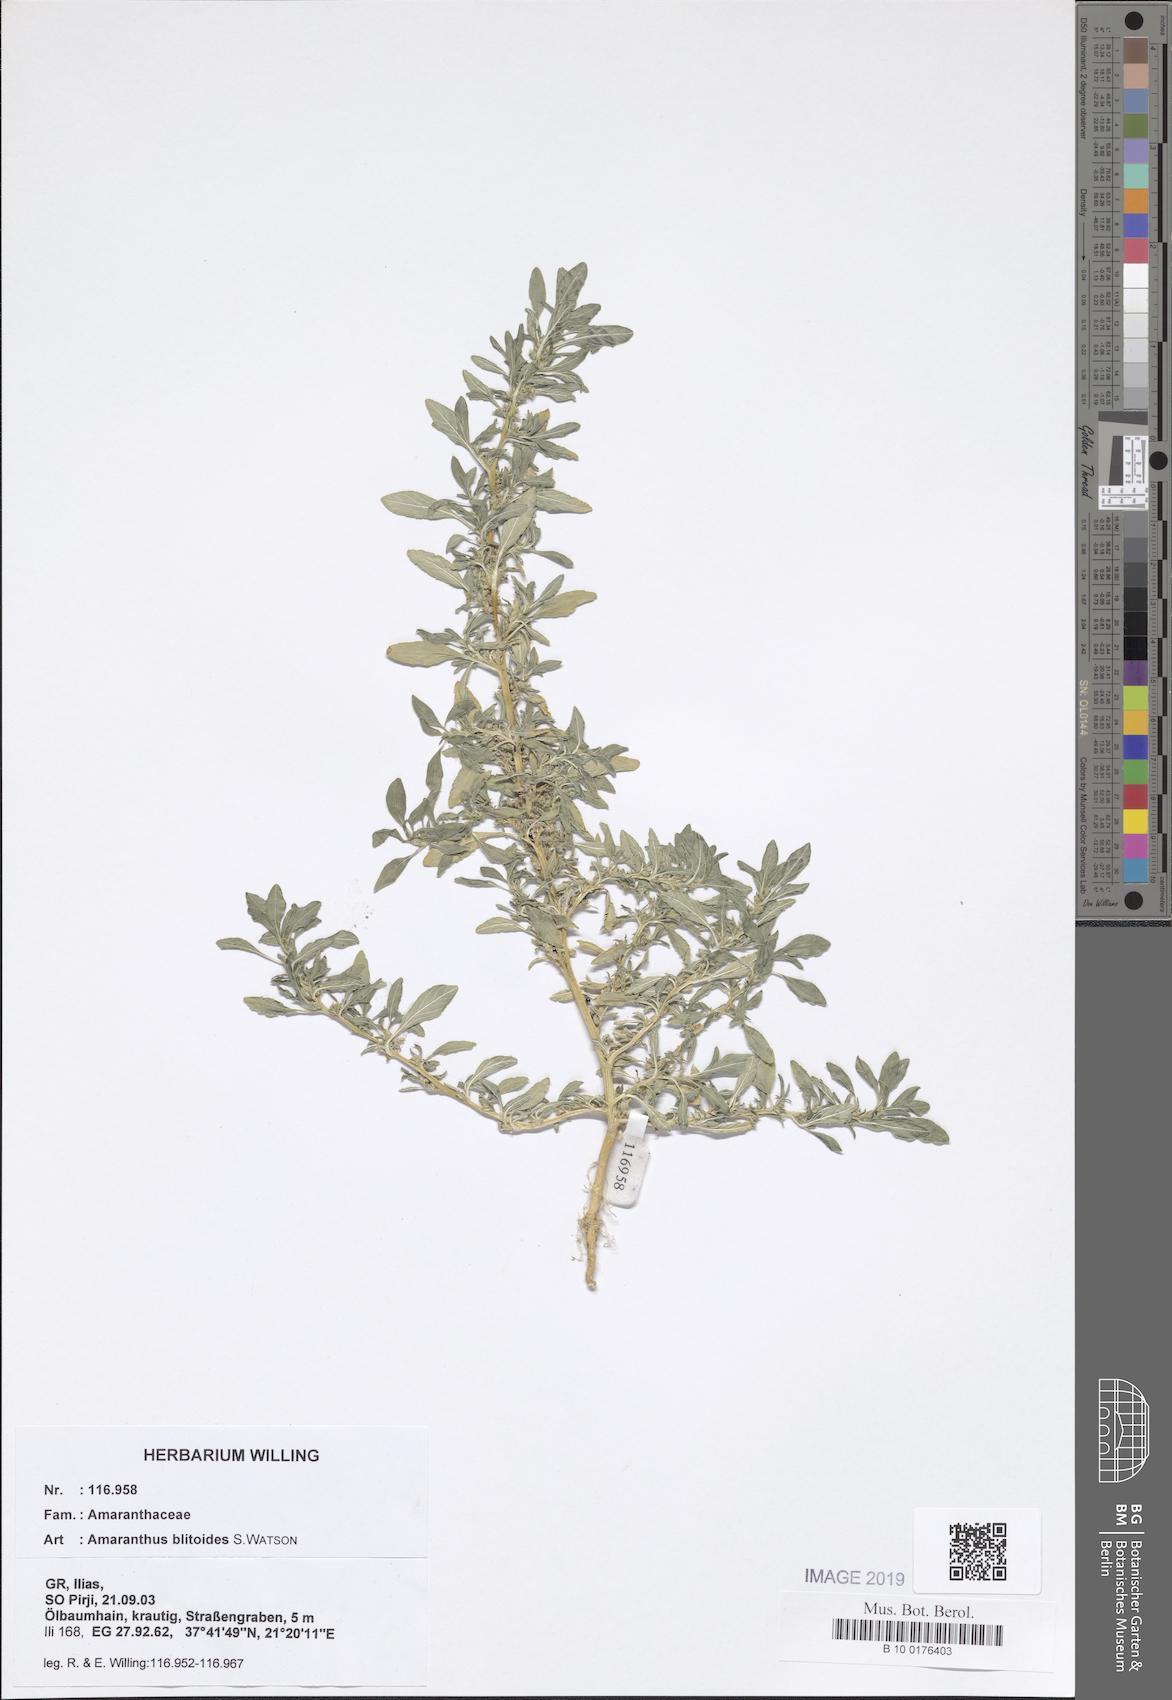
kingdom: Plantae
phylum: Tracheophyta
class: Magnoliopsida
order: Caryophyllales
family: Amaranthaceae
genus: Amaranthus
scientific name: Amaranthus blitoides
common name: Prostrate pigweed
